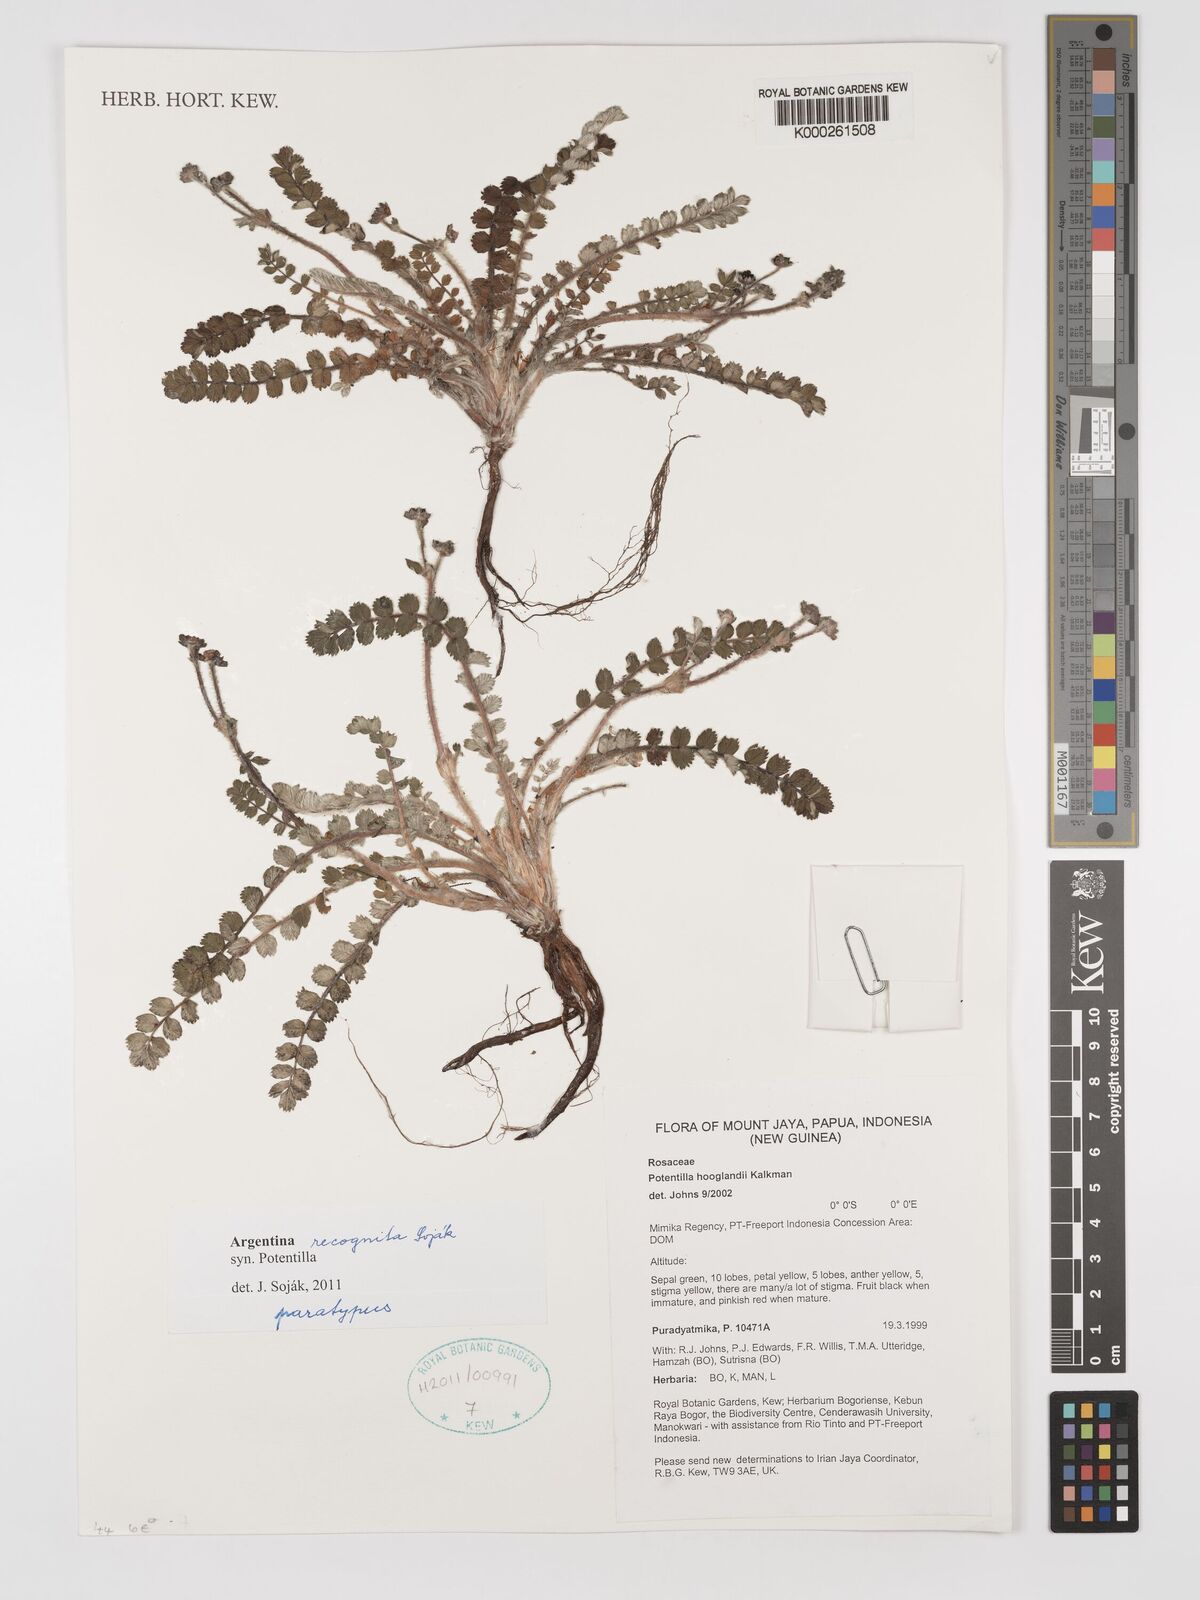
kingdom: Plantae
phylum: Tracheophyta
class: Magnoliopsida
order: Rosales
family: Rosaceae
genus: Potentilla
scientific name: Potentilla
